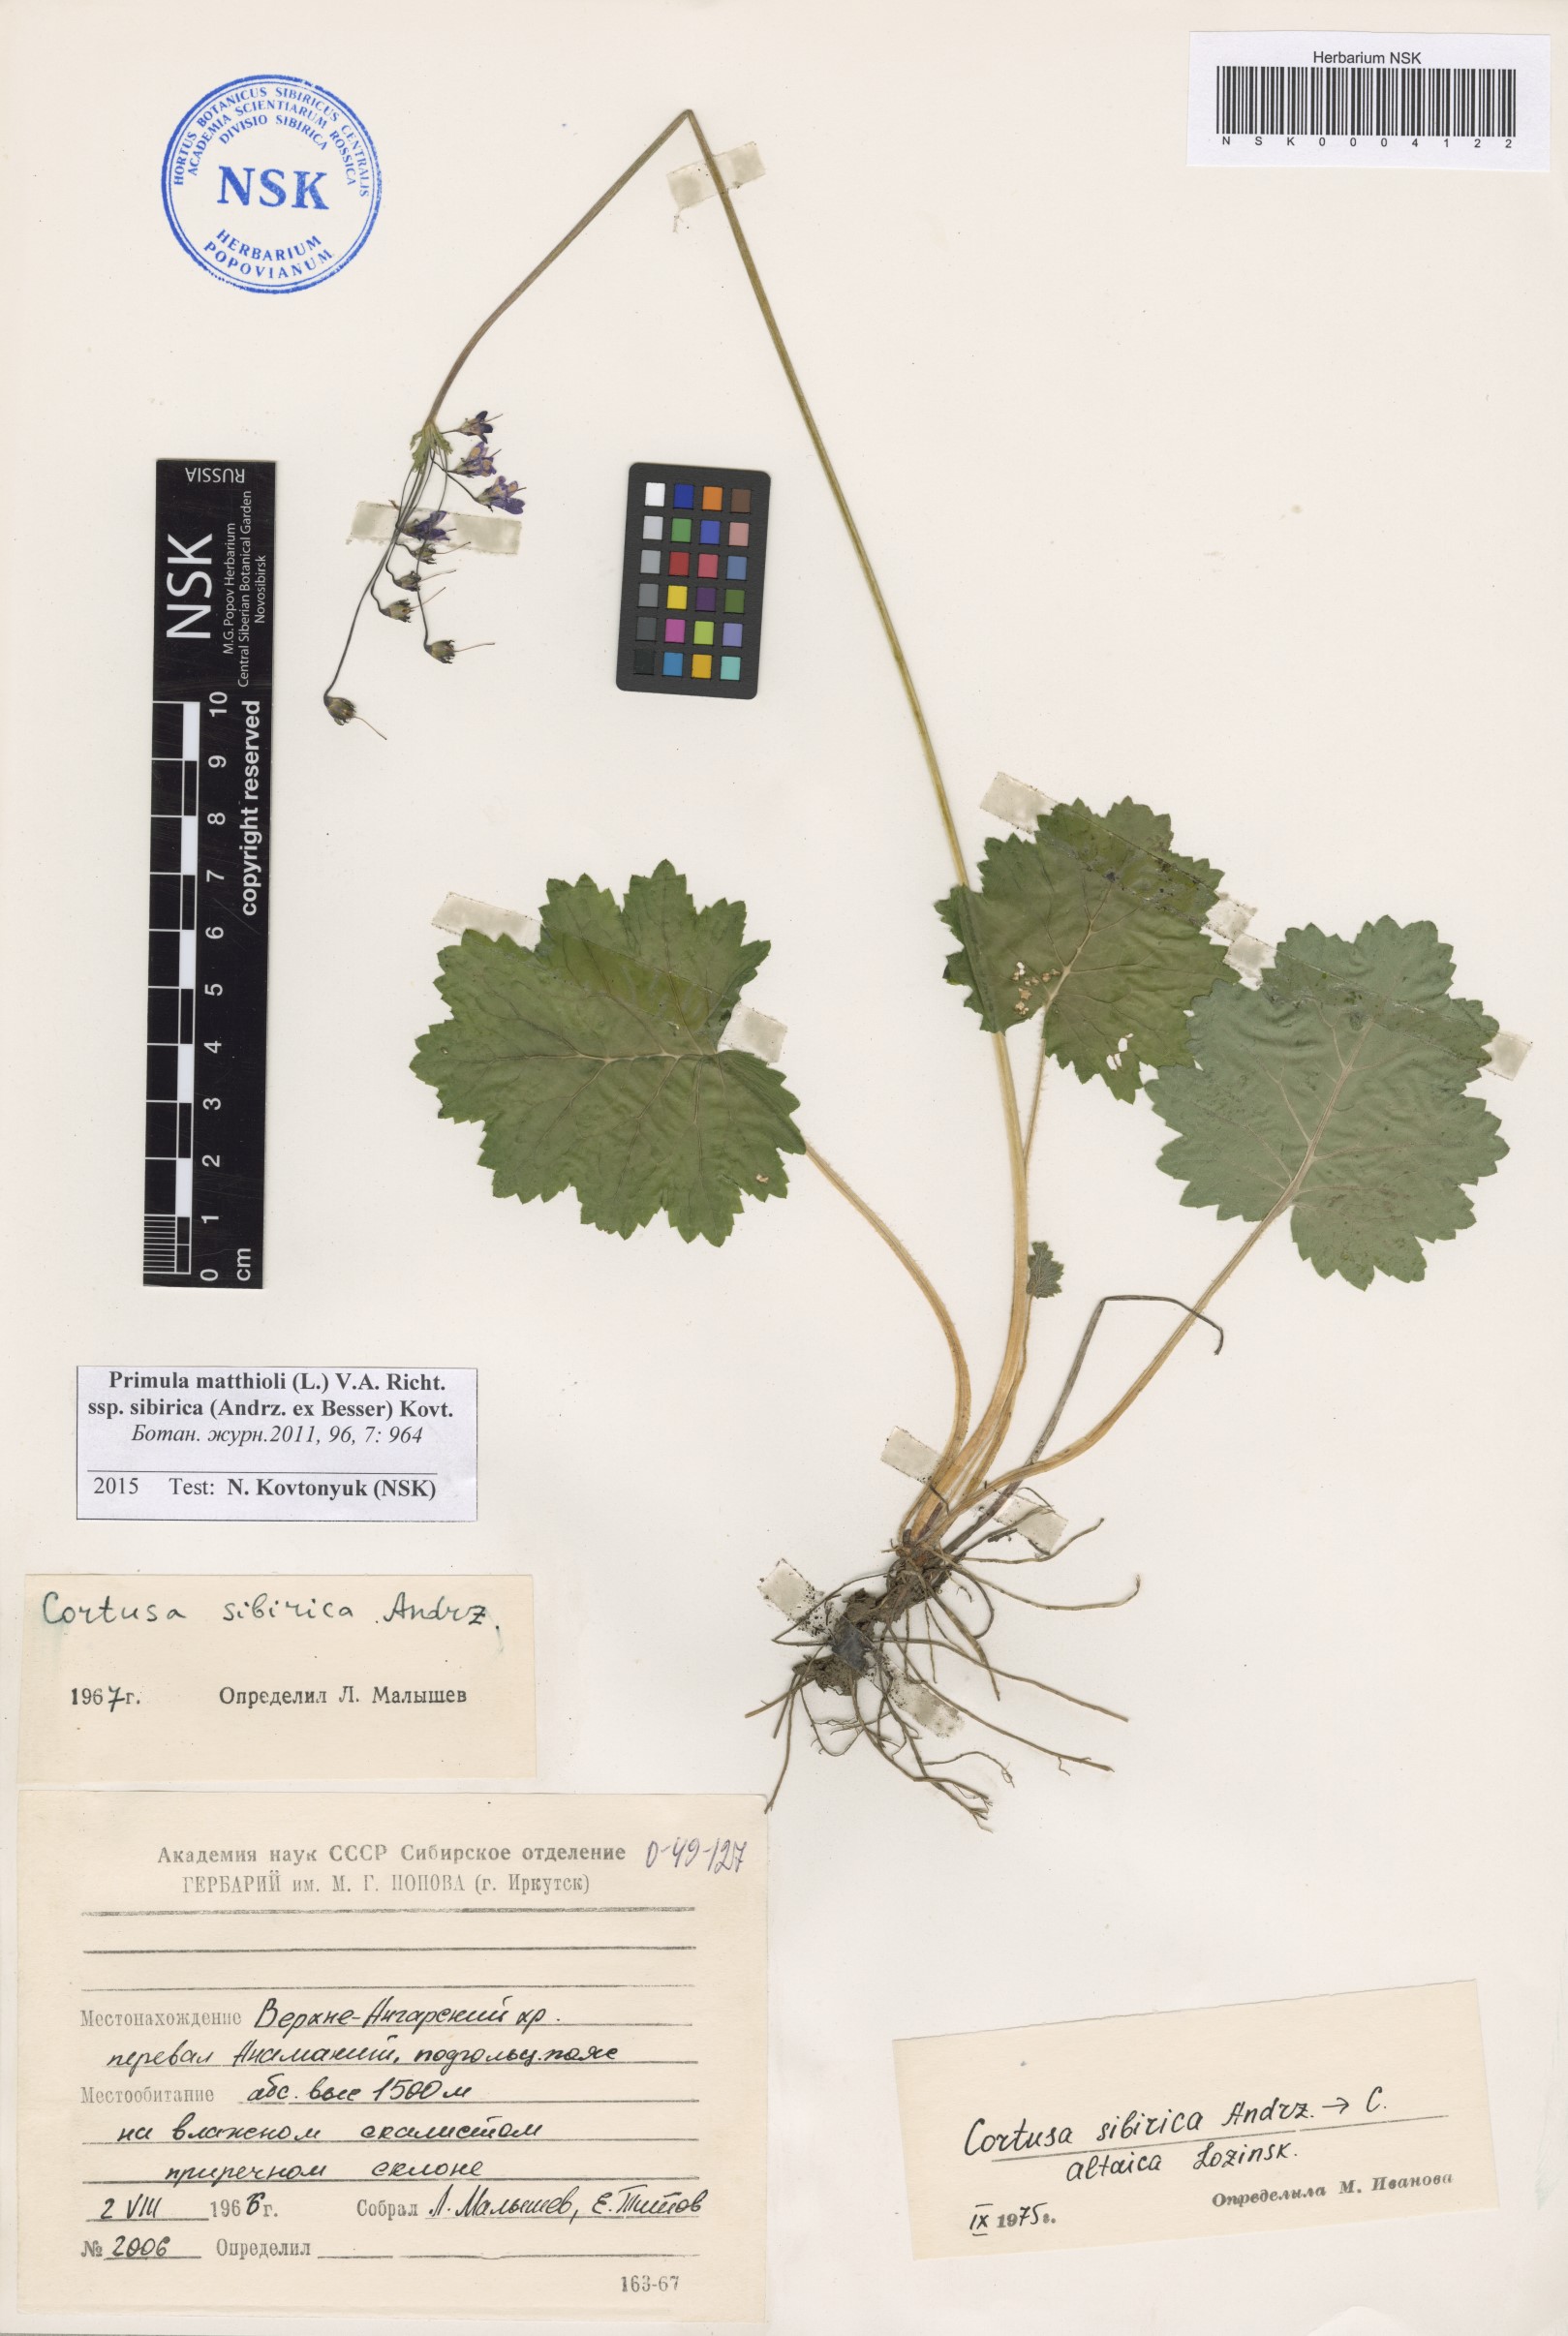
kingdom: Plantae
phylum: Tracheophyta
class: Magnoliopsida
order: Ericales
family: Primulaceae
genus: Primula
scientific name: Primula matthioli
